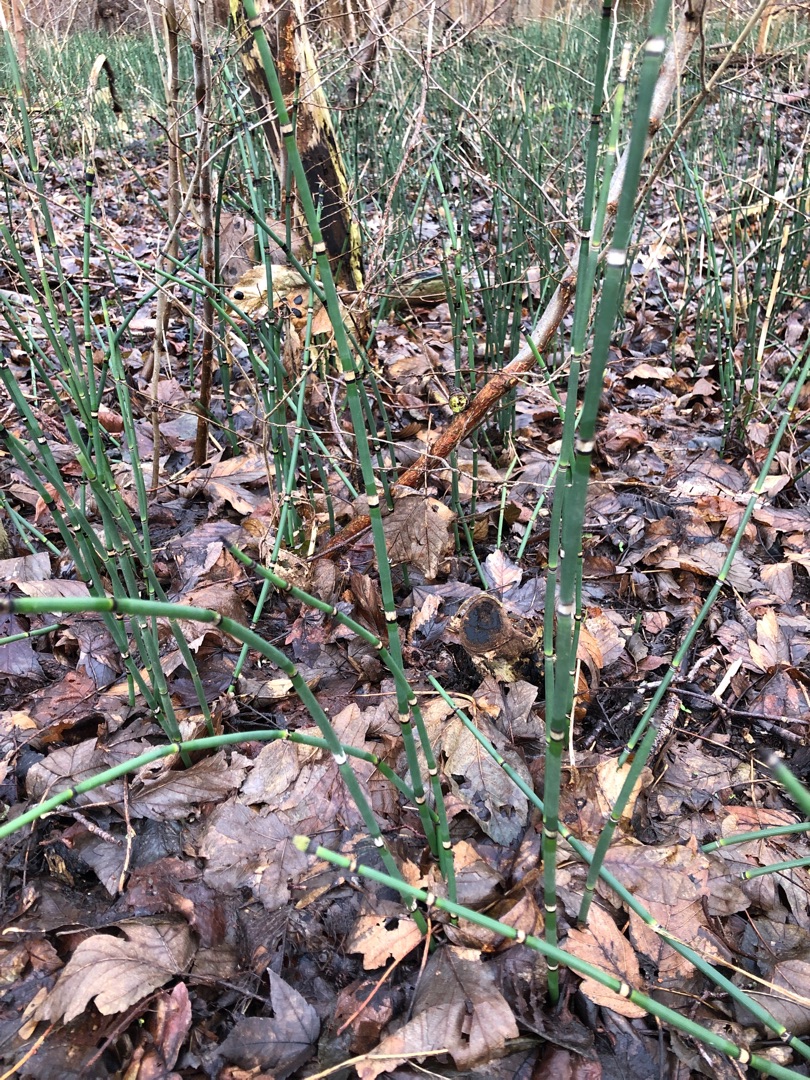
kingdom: Plantae
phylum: Tracheophyta
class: Polypodiopsida
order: Equisetales
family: Equisetaceae
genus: Equisetum
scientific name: Equisetum hyemale
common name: Skavgræs
